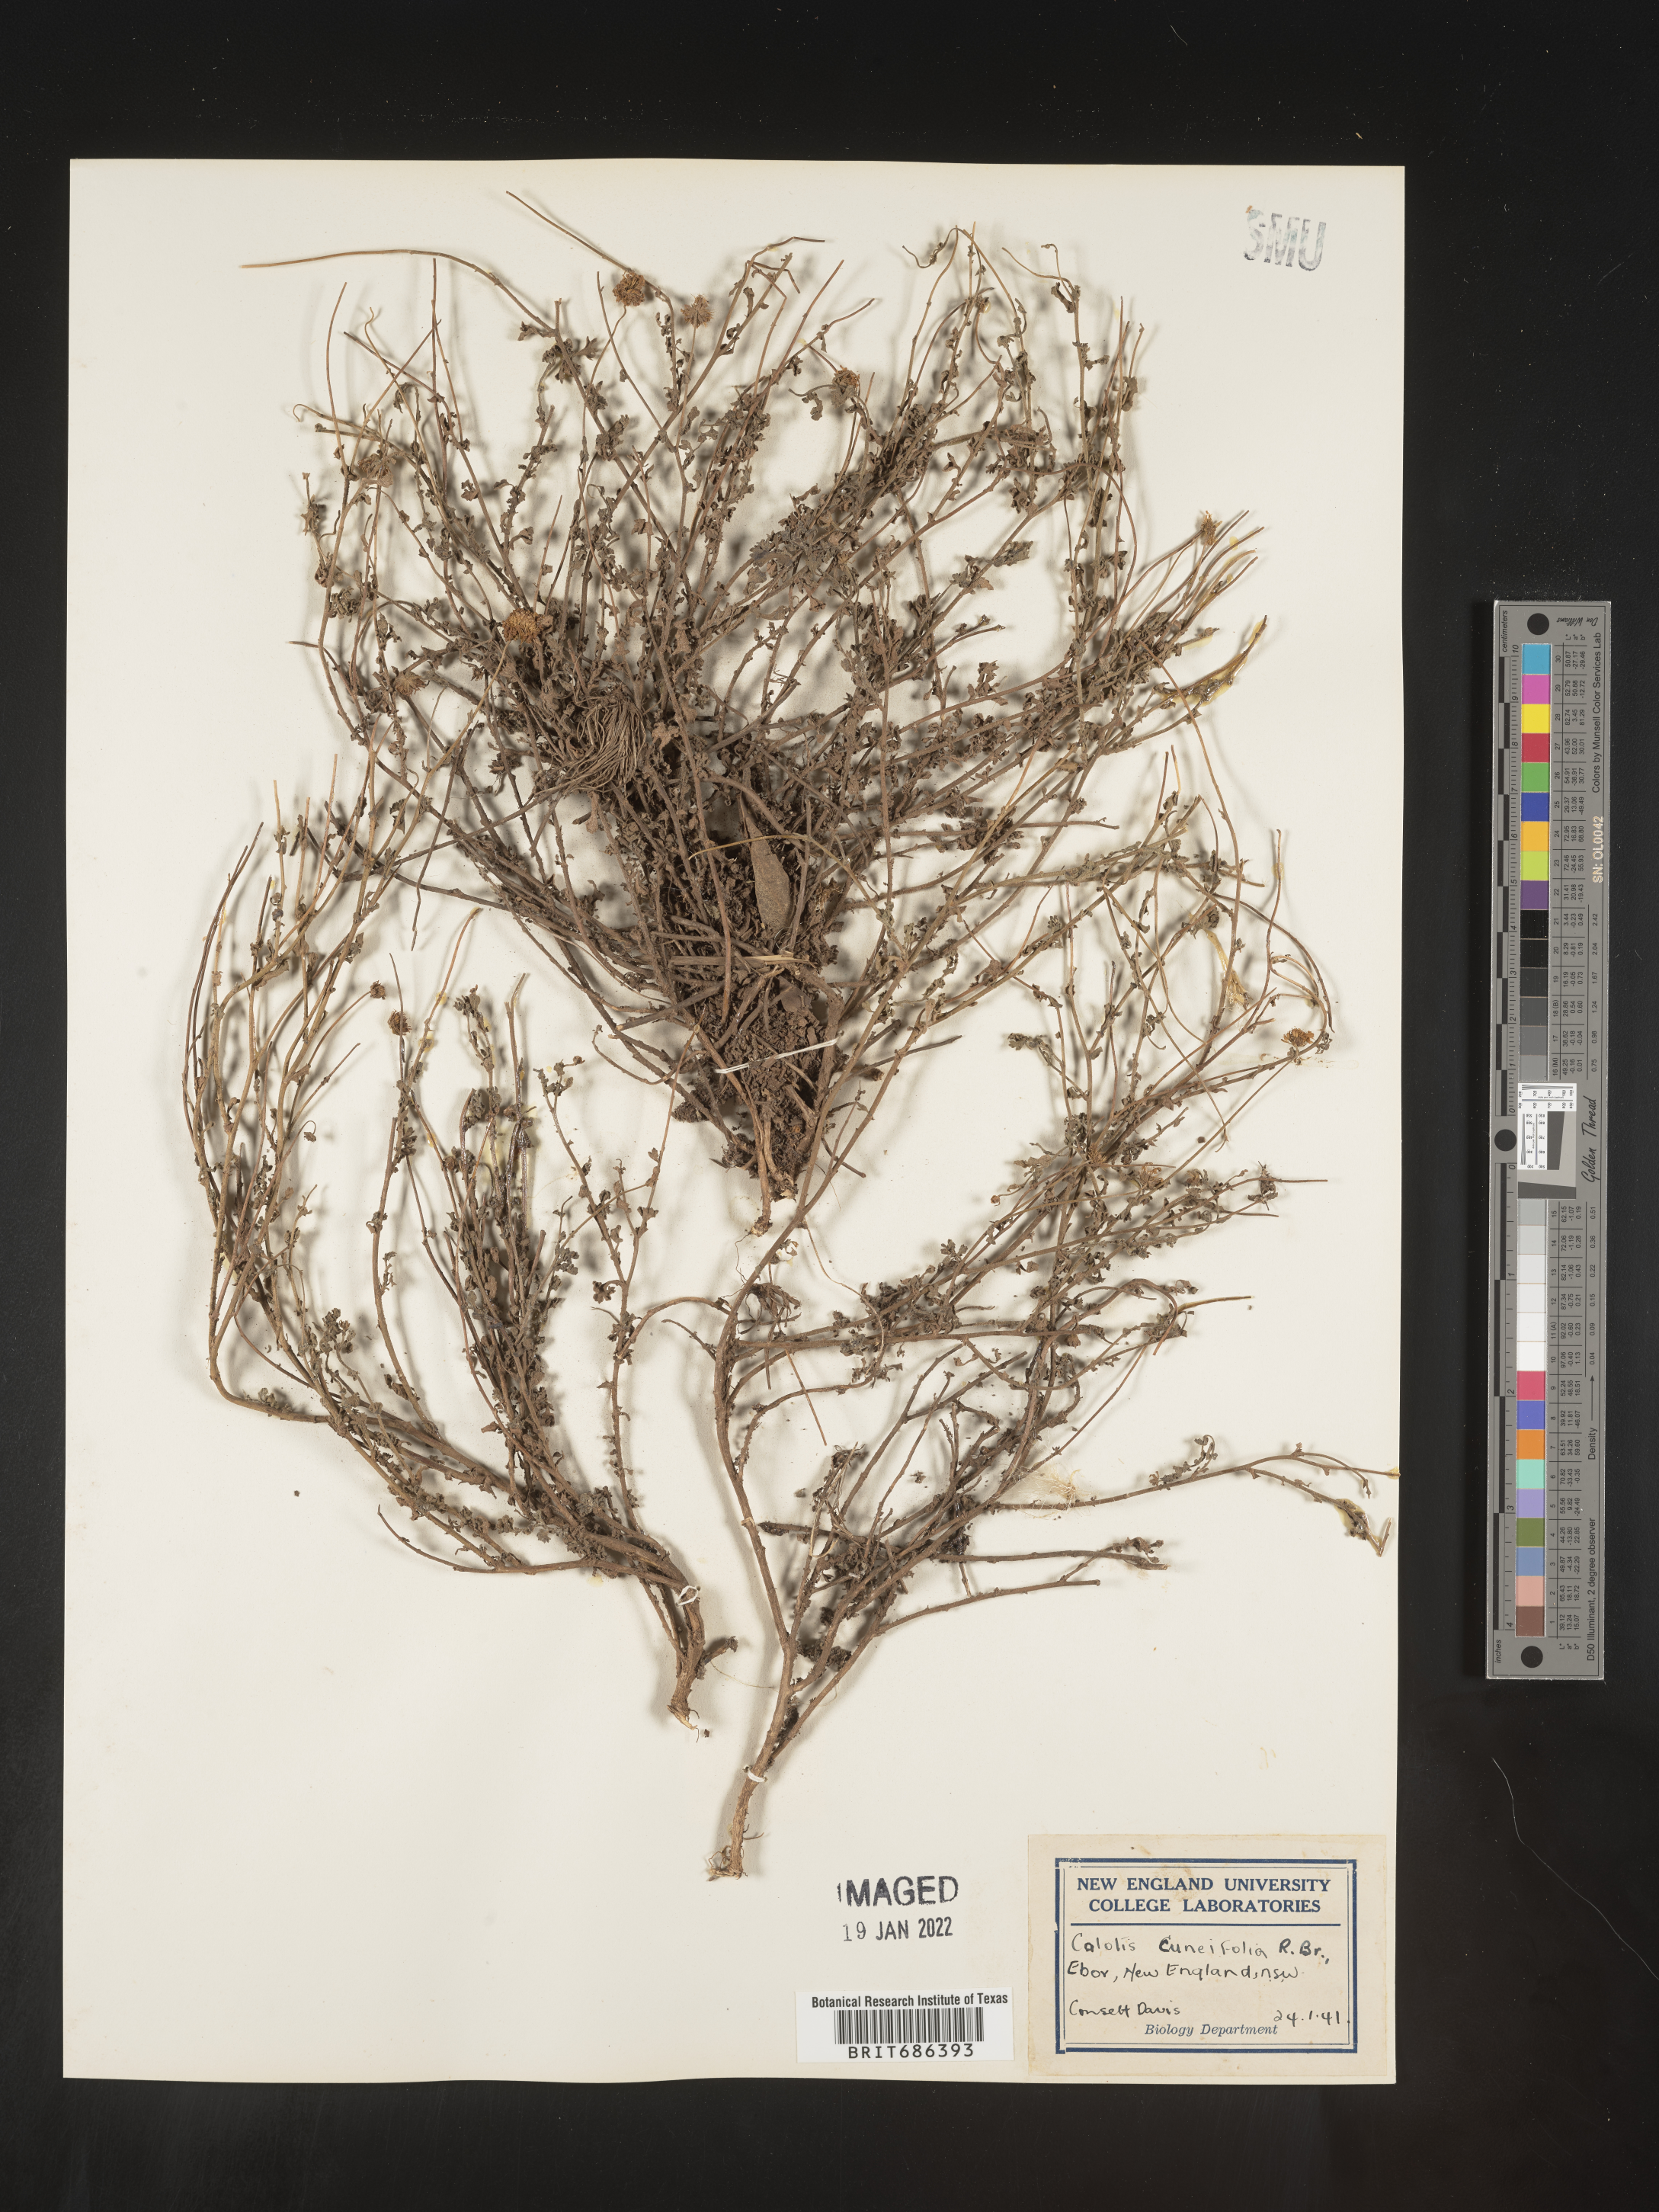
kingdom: Plantae
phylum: Tracheophyta
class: Magnoliopsida
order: Asterales
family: Asteraceae
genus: Calotis
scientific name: Calotis
